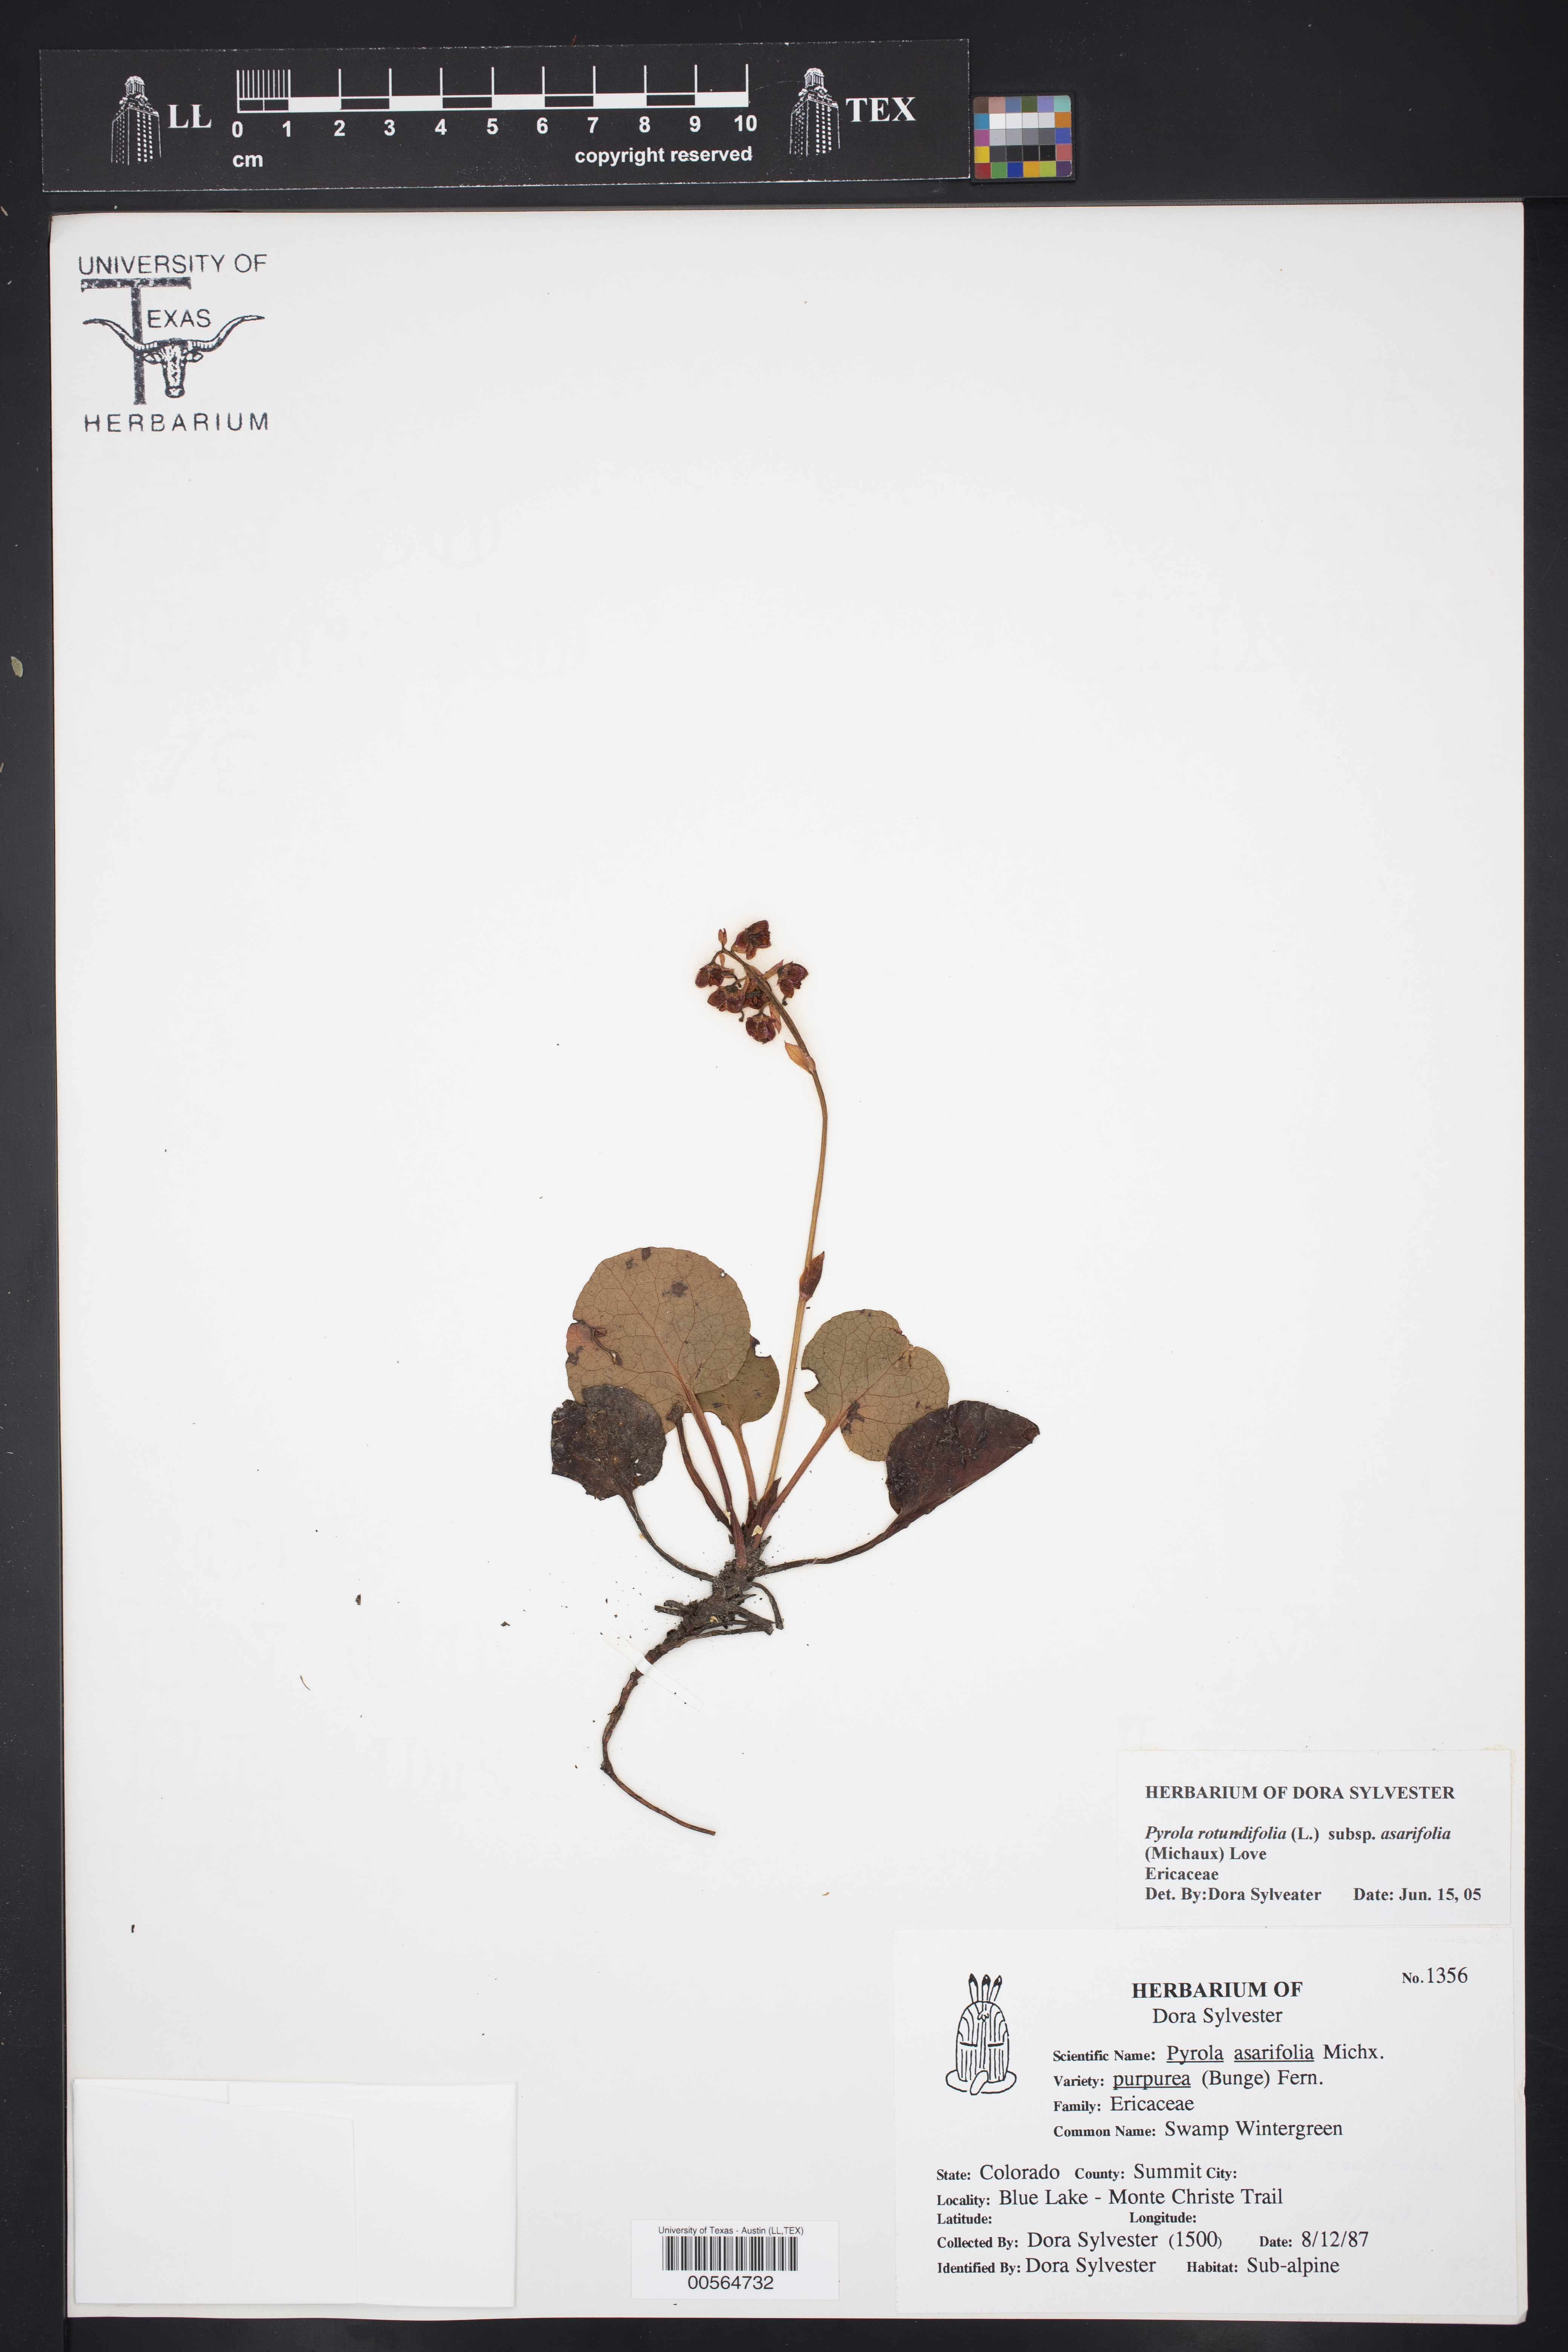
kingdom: Plantae
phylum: Tracheophyta
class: Magnoliopsida
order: Ericales
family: Ericaceae
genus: Pyrola
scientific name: Pyrola asarifolia
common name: Bog wintergreen
